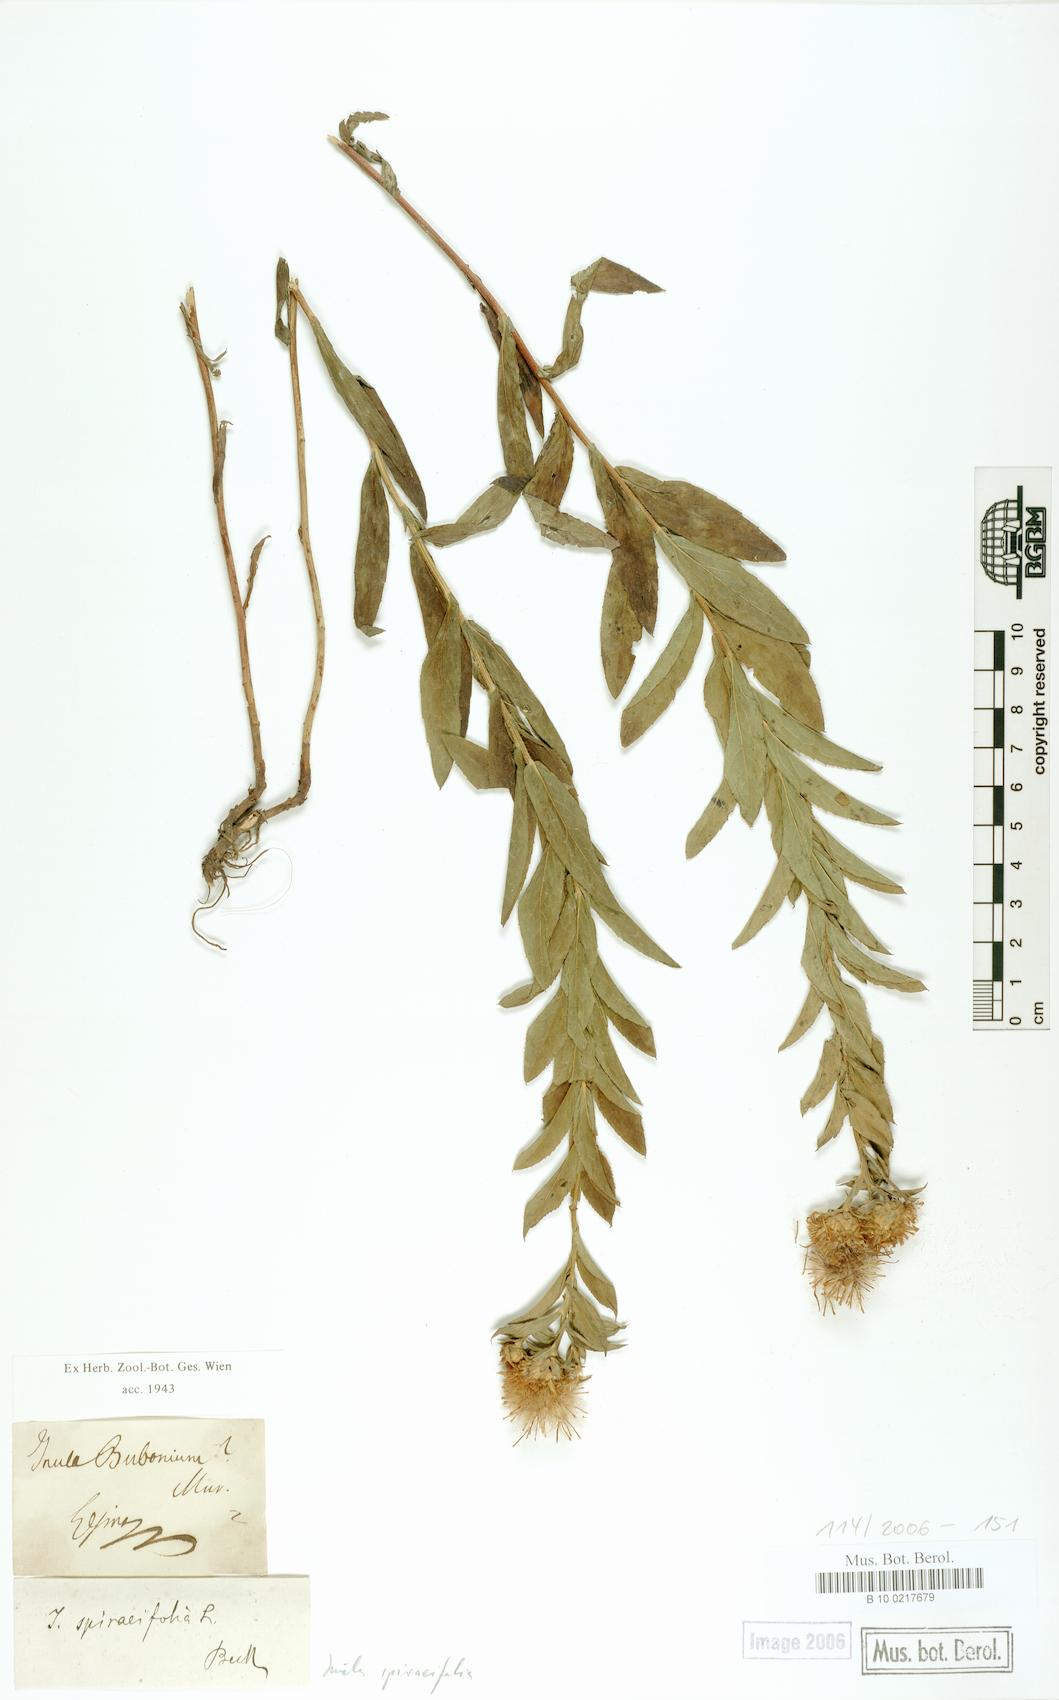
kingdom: Plantae
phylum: Tracheophyta
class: Magnoliopsida
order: Asterales
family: Asteraceae
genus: Pentanema
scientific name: Pentanema spiraeifolium
